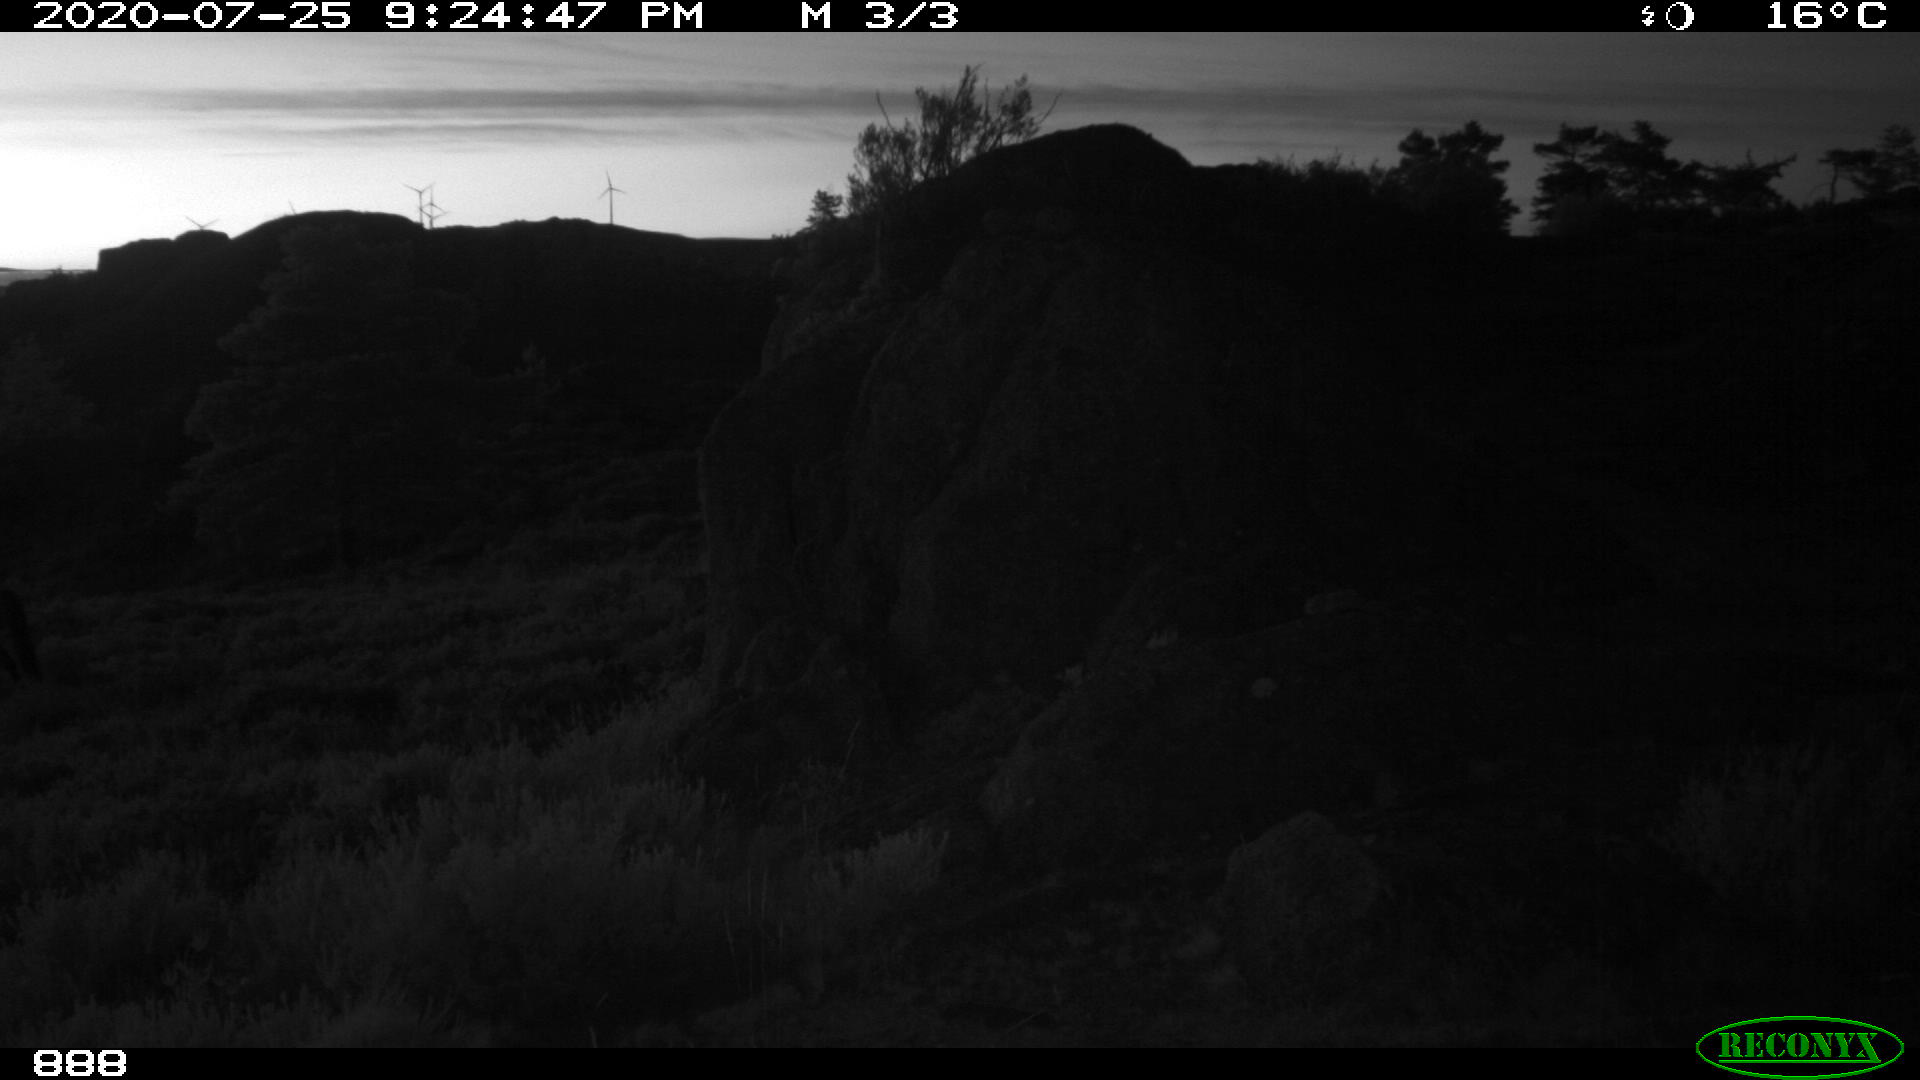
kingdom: Animalia
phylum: Chordata
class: Mammalia
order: Perissodactyla
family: Equidae
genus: Equus
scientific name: Equus caballus
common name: Horse
